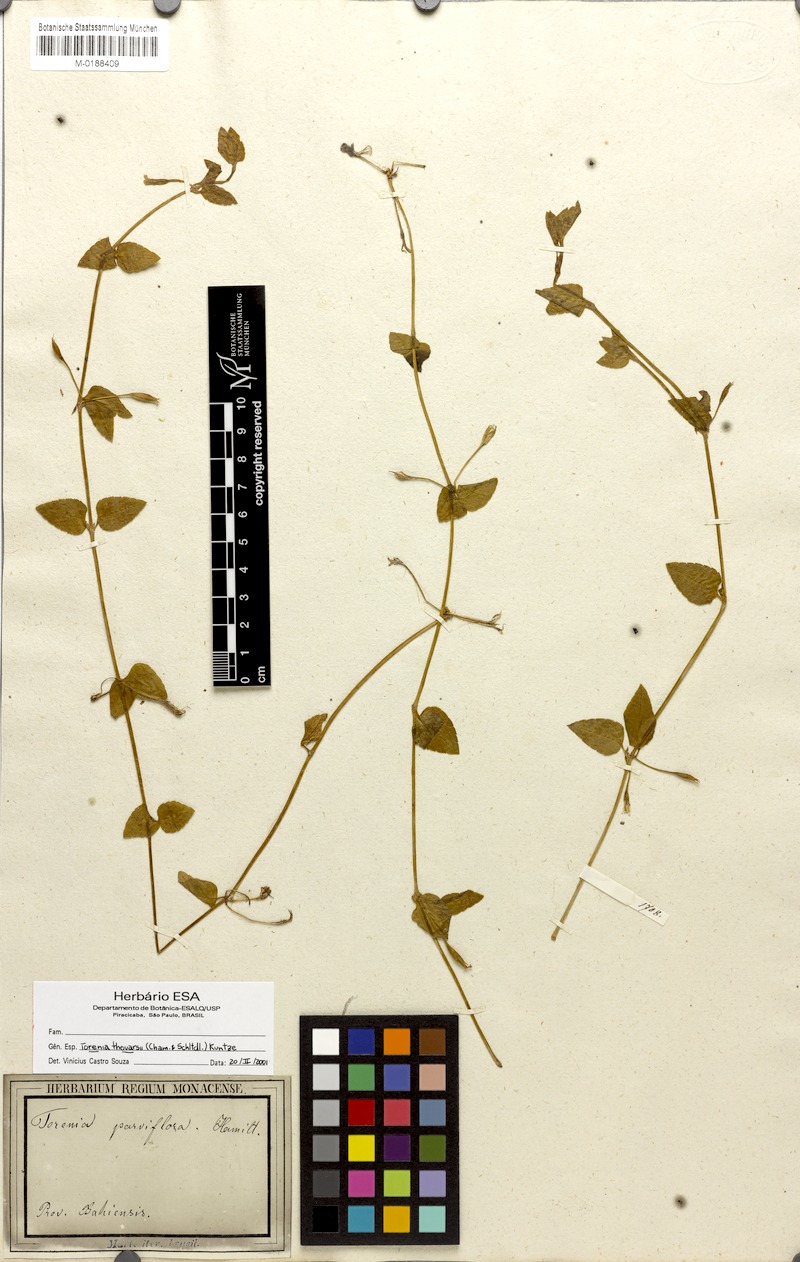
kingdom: Plantae
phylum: Tracheophyta
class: Magnoliopsida
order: Lamiales
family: Linderniaceae
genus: Torenia
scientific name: Torenia thouarsii
